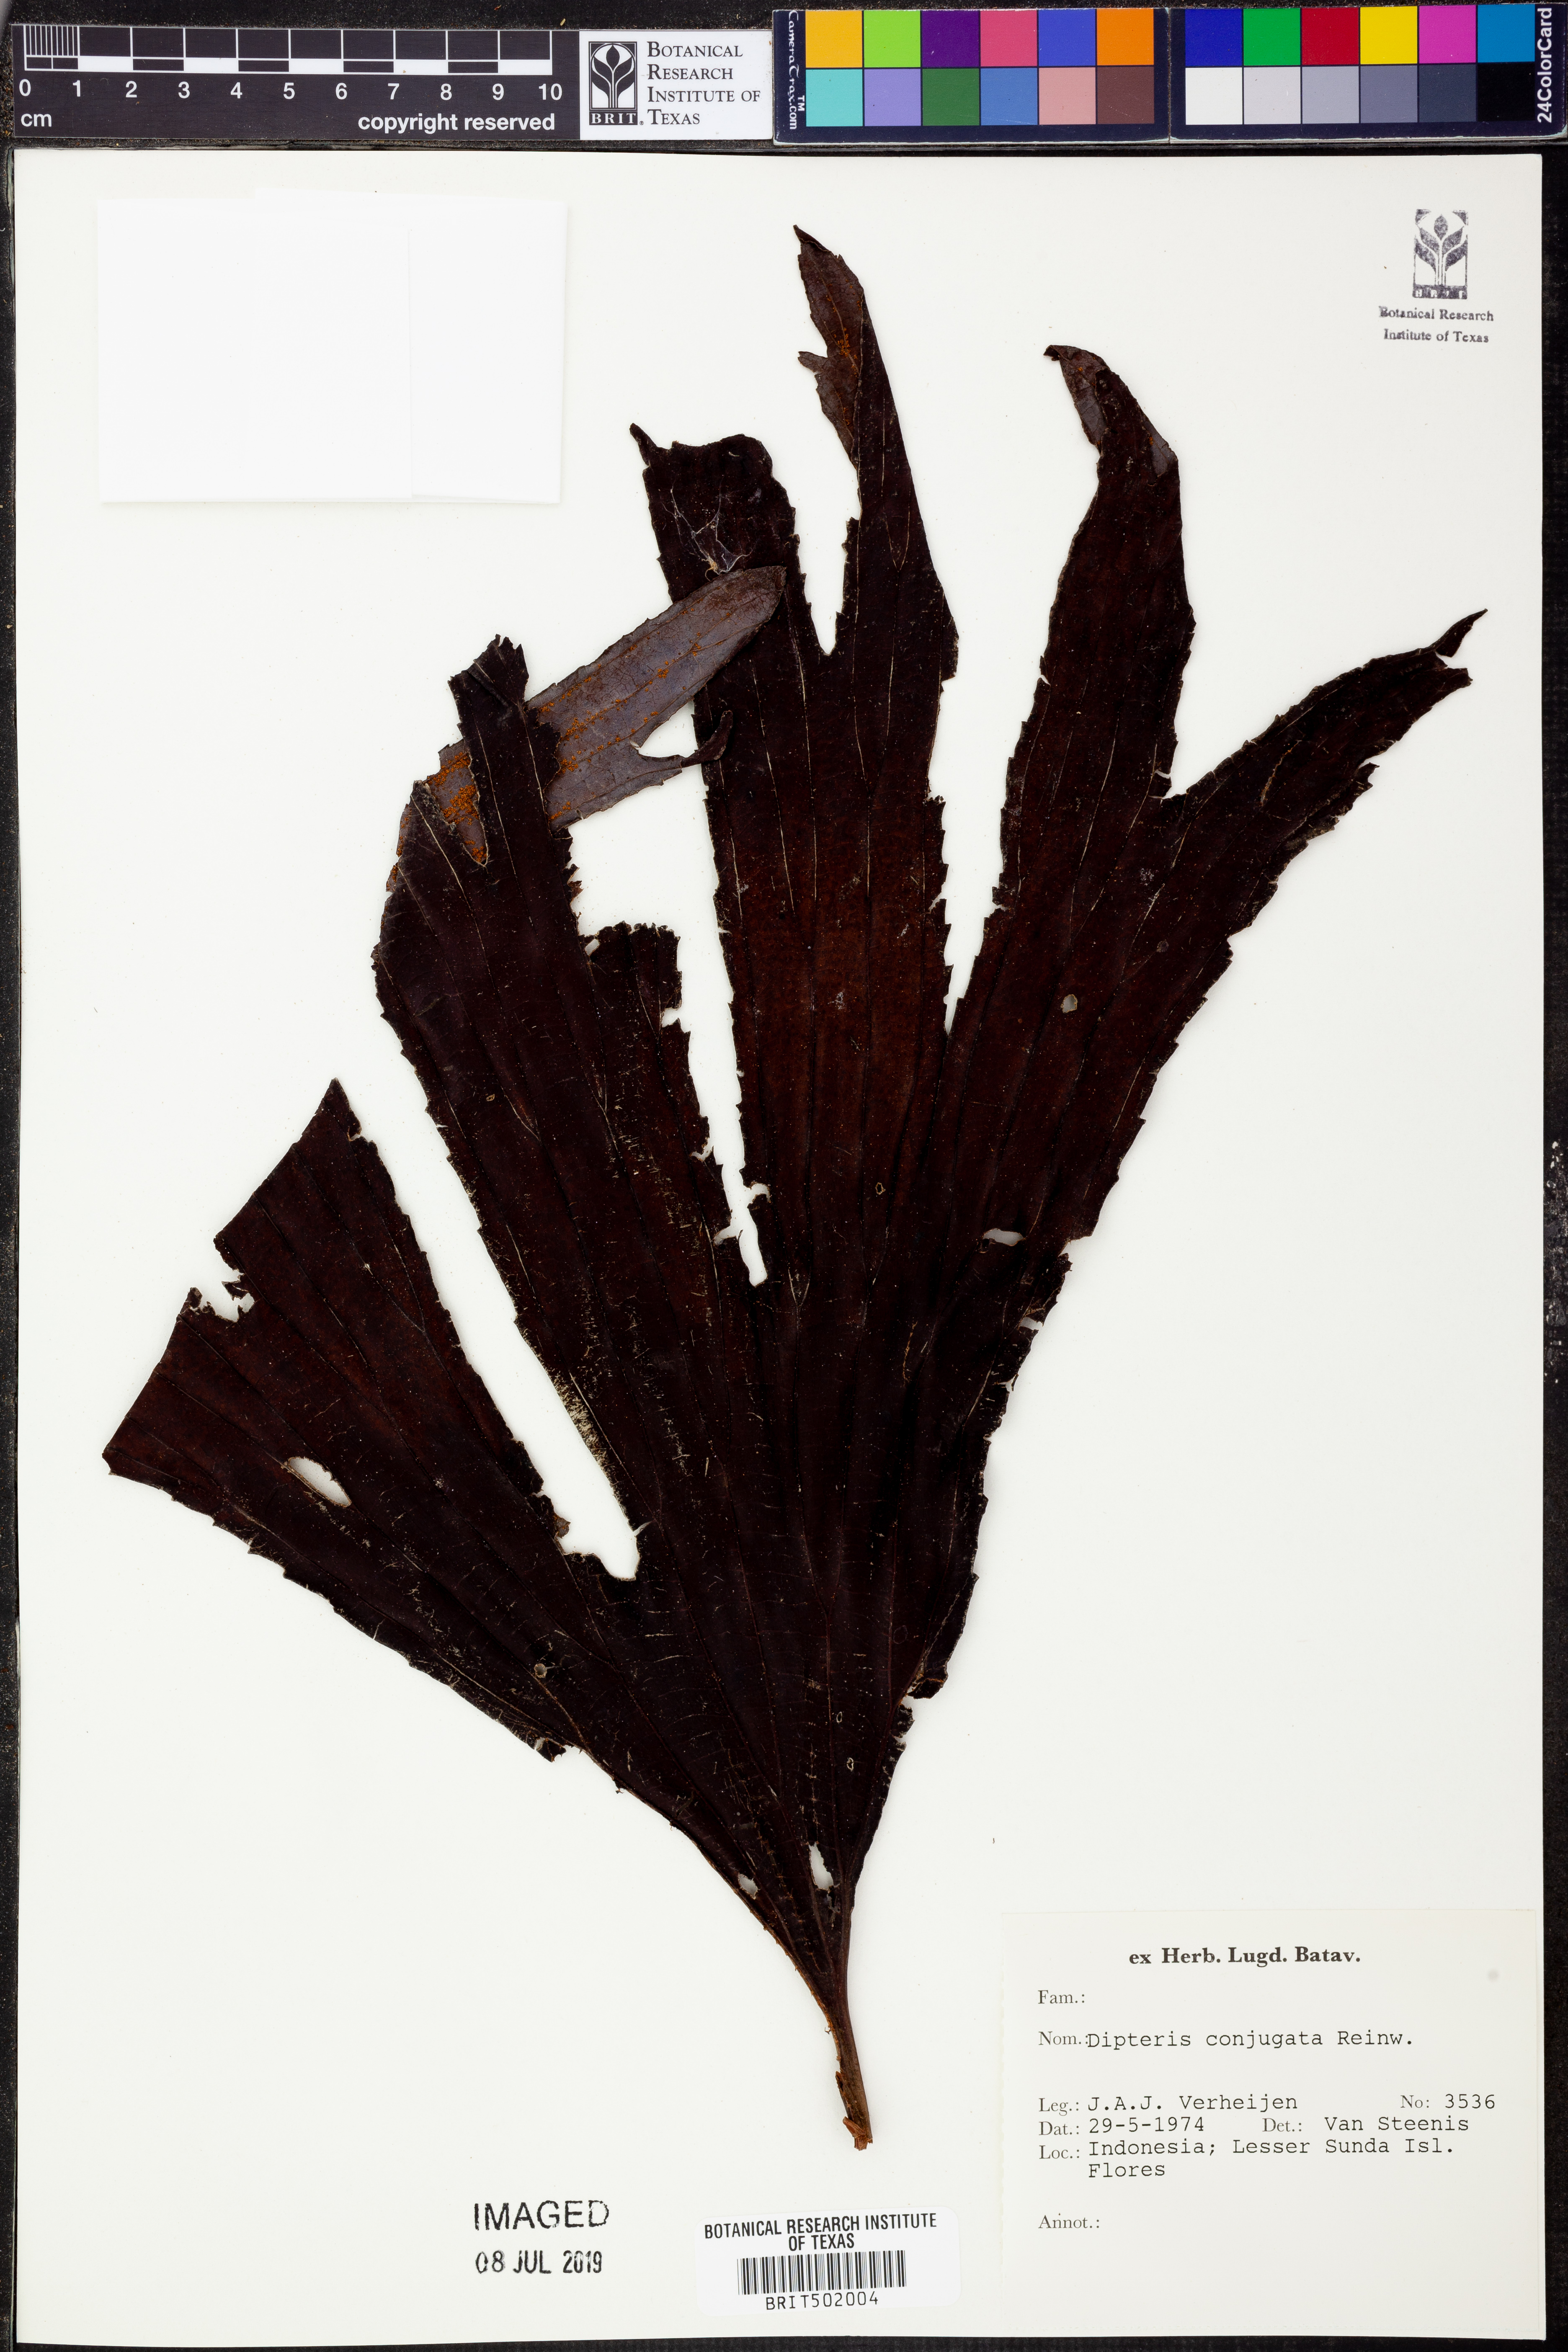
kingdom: Plantae
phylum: Tracheophyta
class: Polypodiopsida
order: Gleicheniales
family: Dipteridaceae
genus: Dipteris
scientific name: Dipteris conjugata
